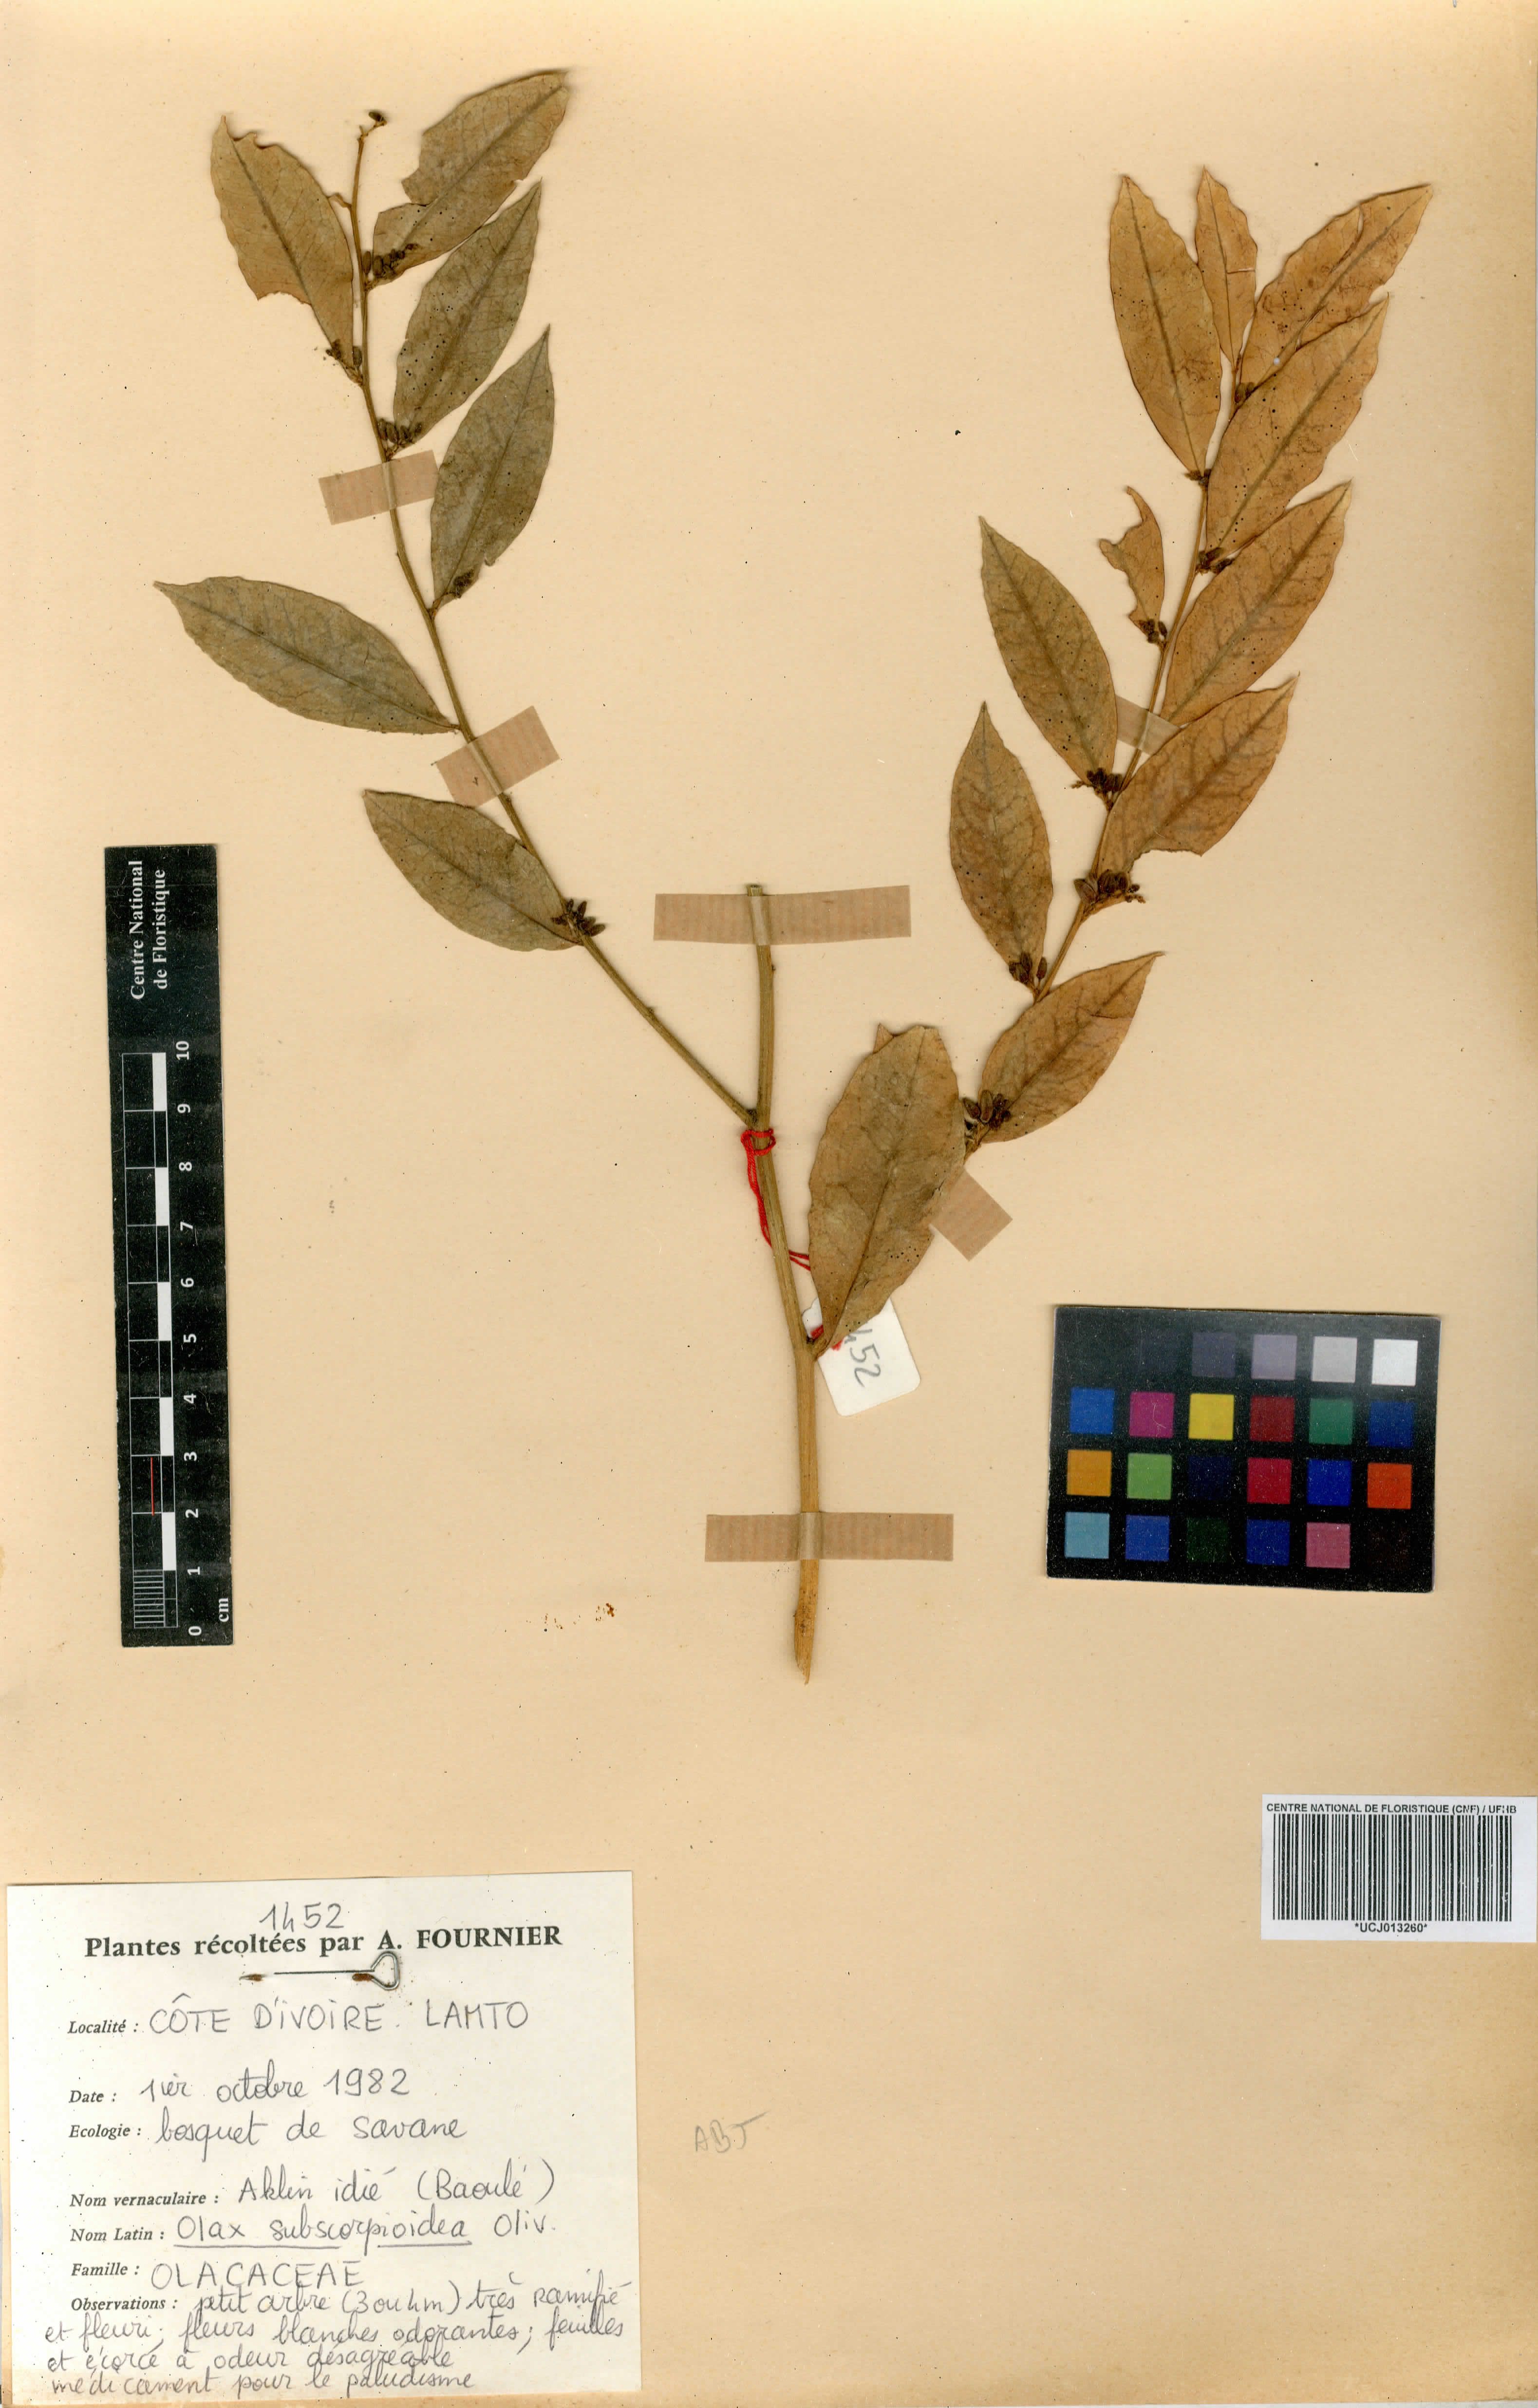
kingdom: Plantae
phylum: Tracheophyta
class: Magnoliopsida
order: Santalales
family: Olacaceae
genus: Olax
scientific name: Olax subscorpioides
